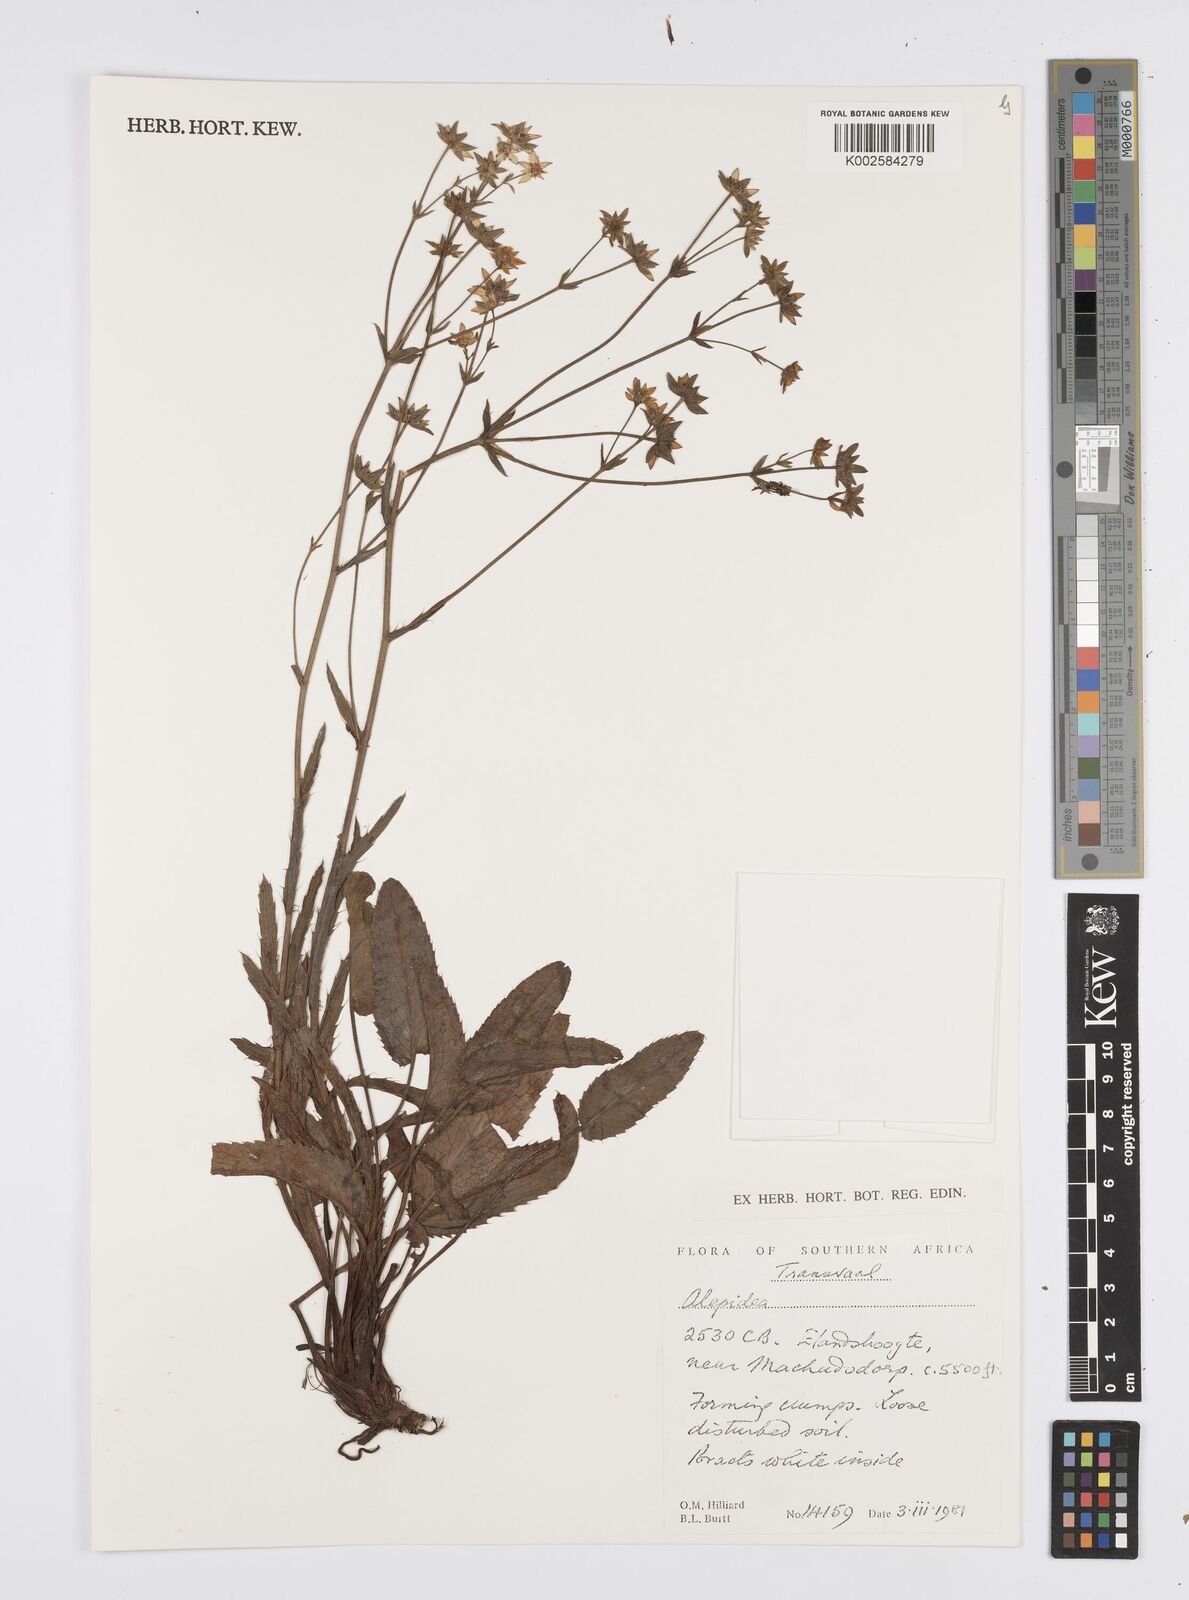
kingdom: Plantae
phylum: Tracheophyta
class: Magnoliopsida
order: Apiales
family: Apiaceae
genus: Alepidea
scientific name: Alepidea
